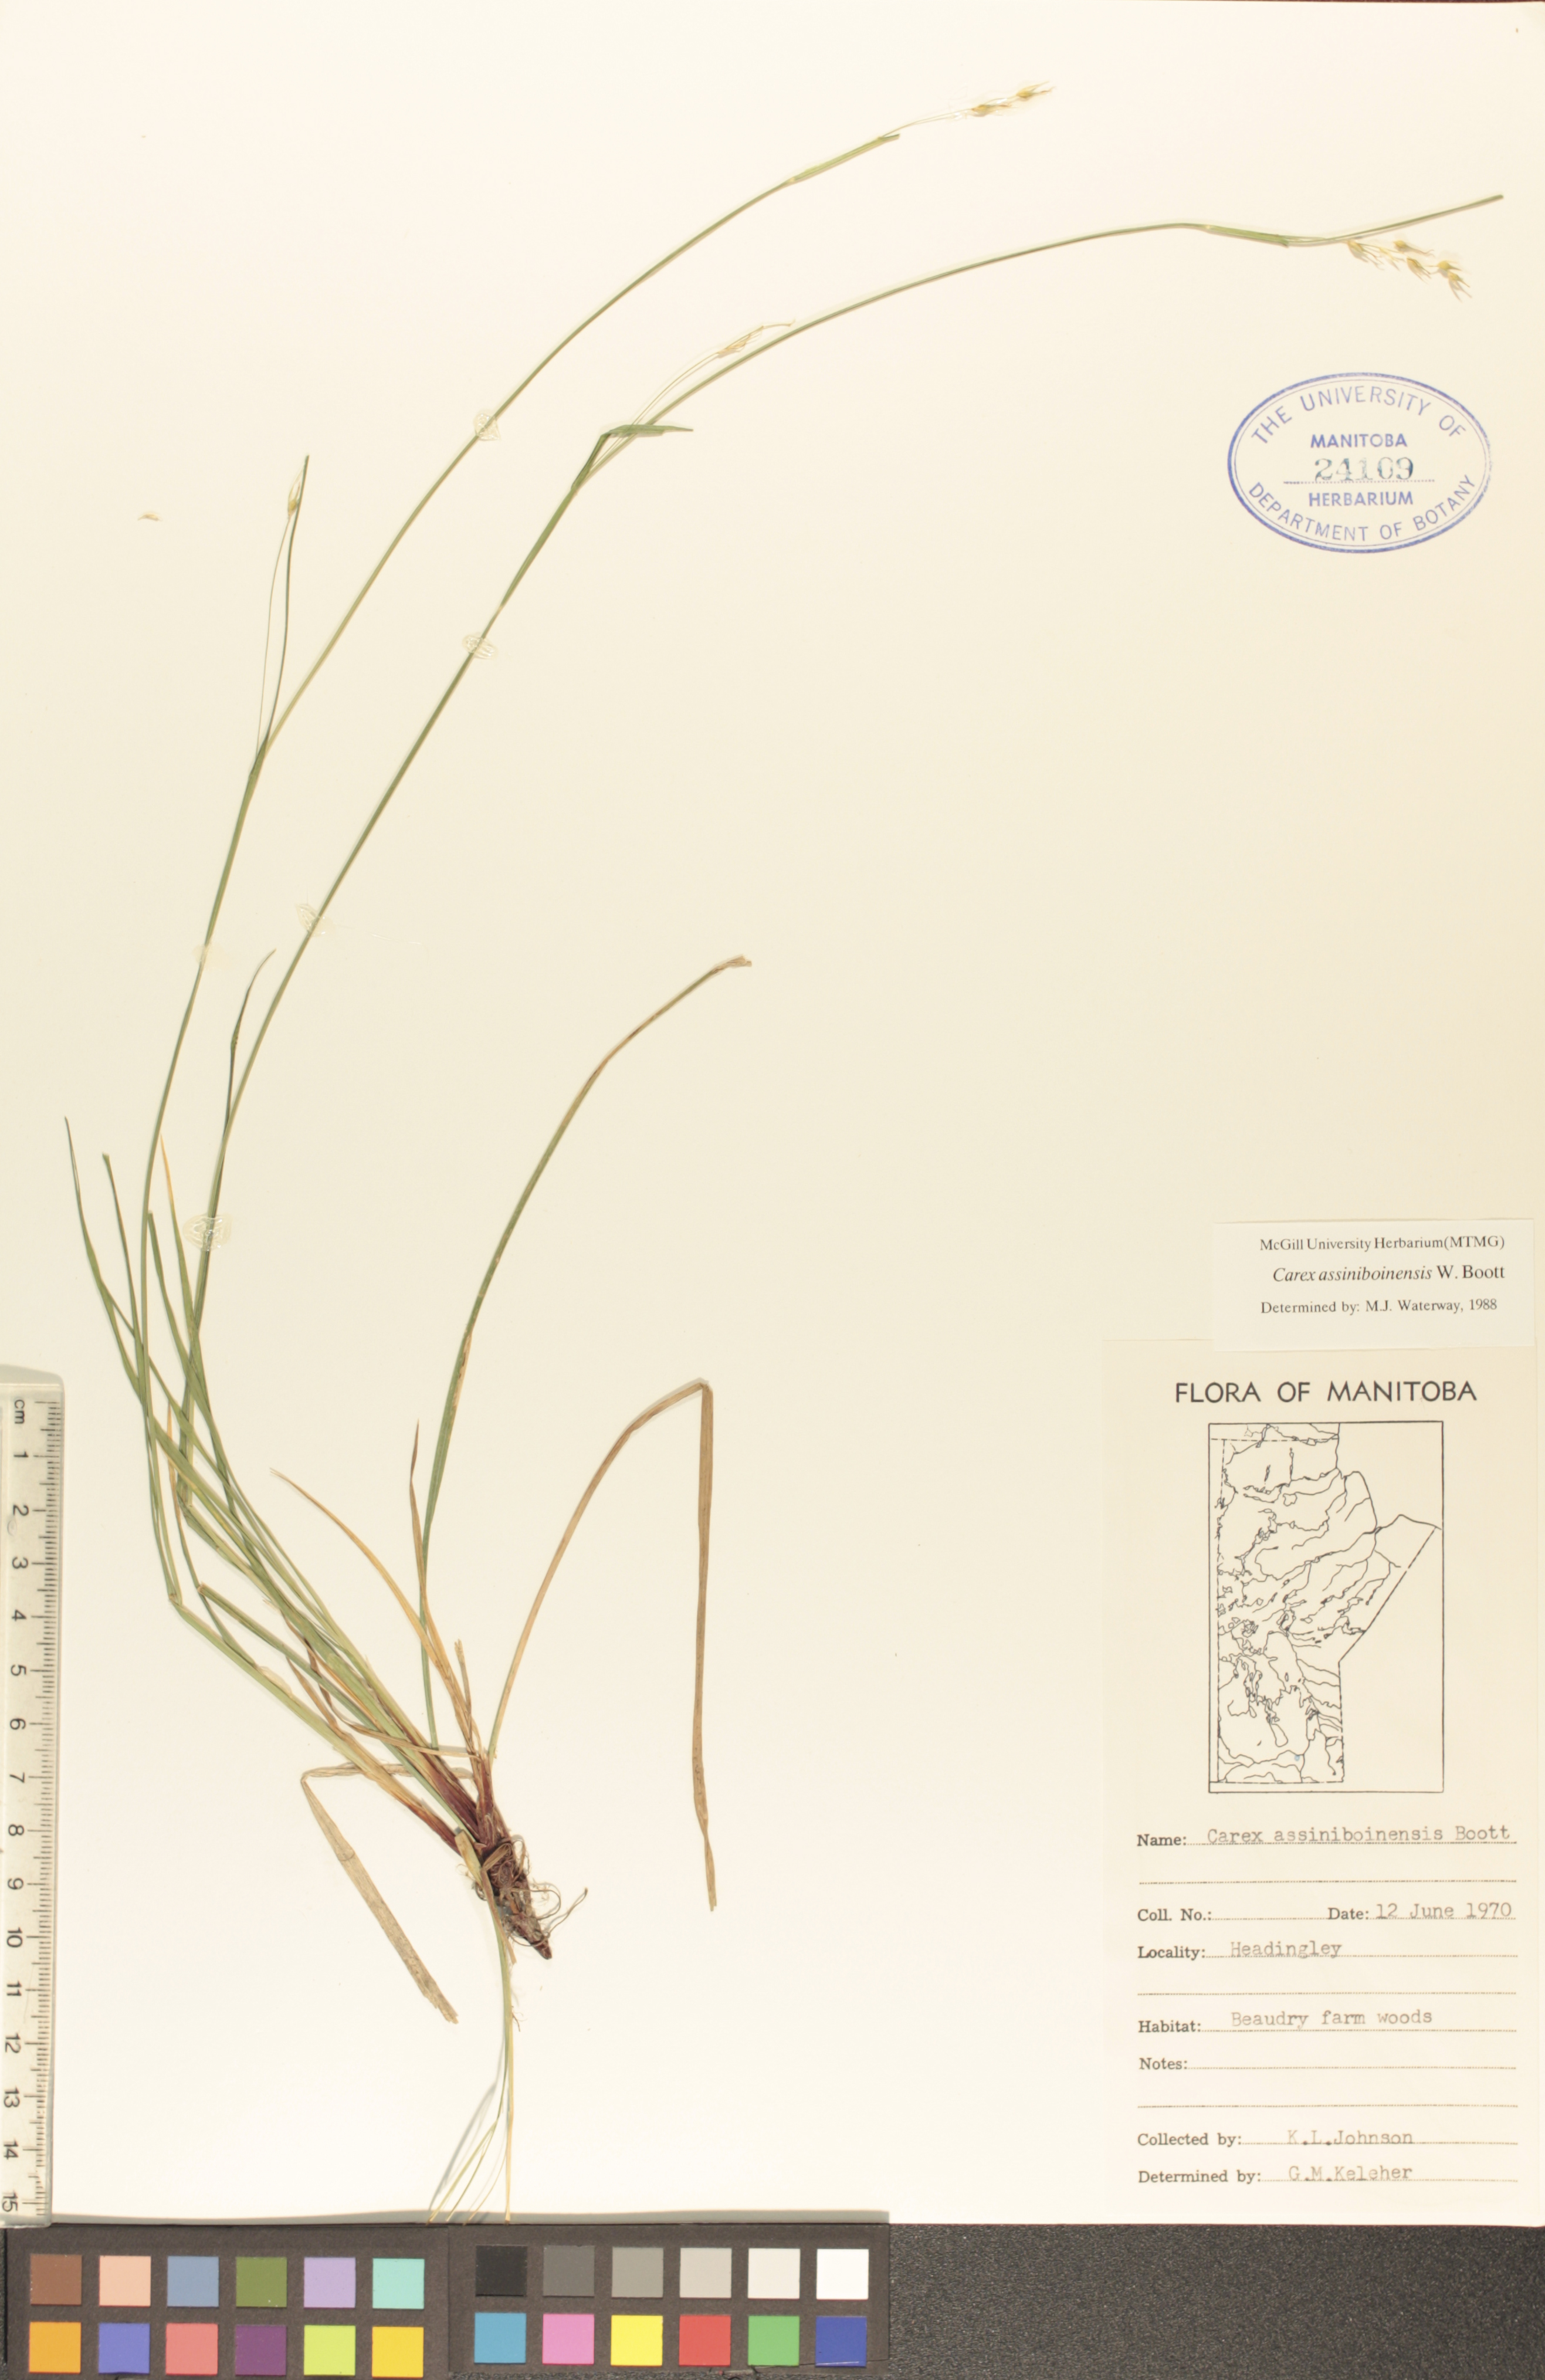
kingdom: Plantae
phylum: Tracheophyta
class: Liliopsida
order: Poales
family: Cyperaceae
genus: Carex
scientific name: Carex assiniboinensis
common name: Assiniboia sedge
